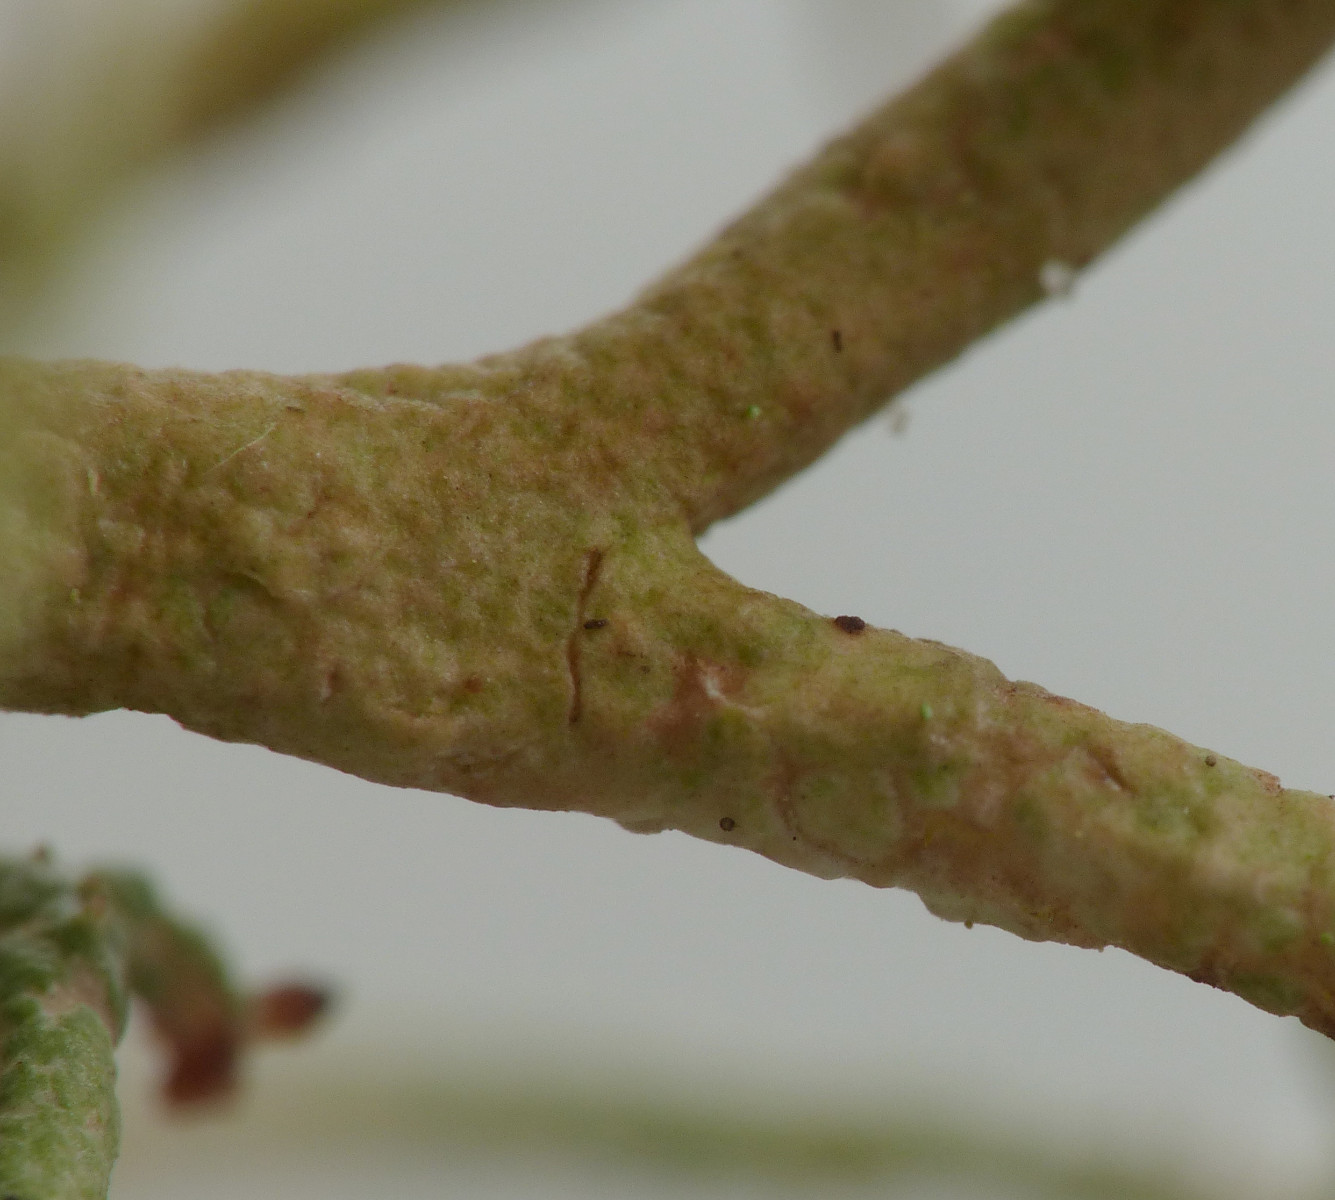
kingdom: Fungi
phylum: Ascomycota
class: Lecanoromycetes
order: Lecanorales
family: Cladoniaceae
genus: Cladonia
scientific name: Cladonia furcata
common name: kløftet bægerlav
